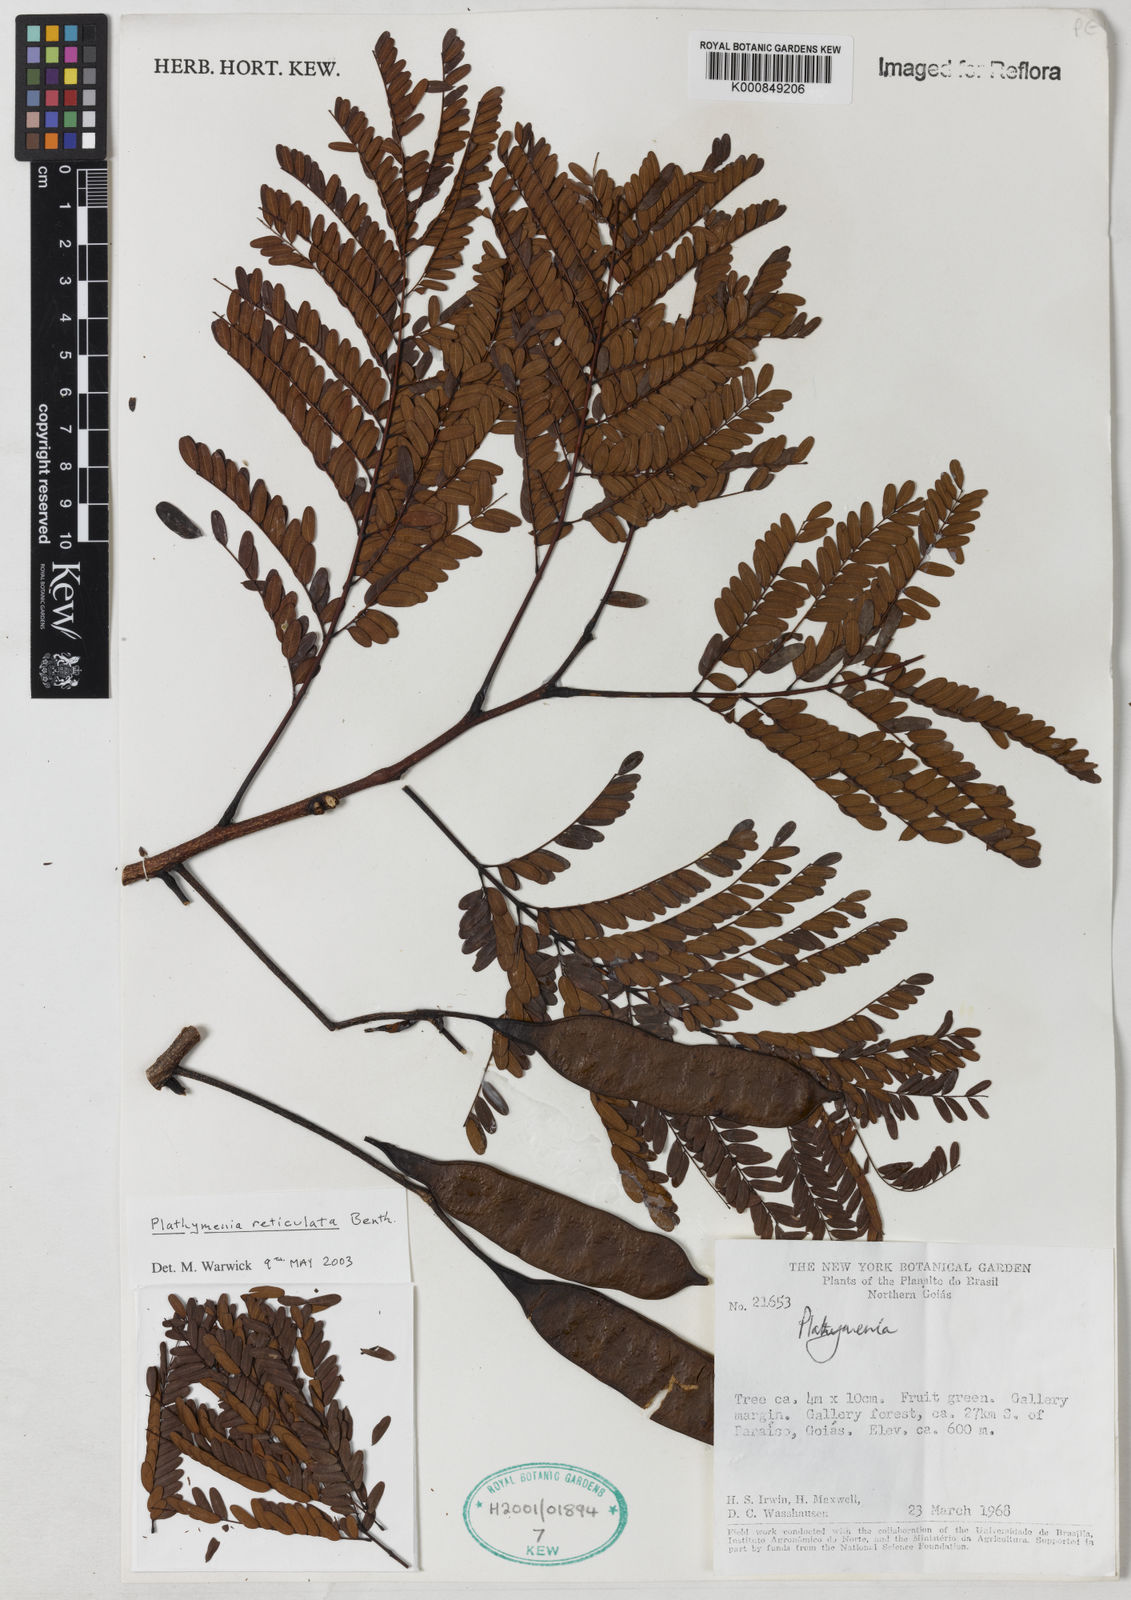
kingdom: Plantae
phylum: Tracheophyta
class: Magnoliopsida
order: Fabales
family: Fabaceae
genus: Plathymenia
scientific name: Plathymenia reticulata
